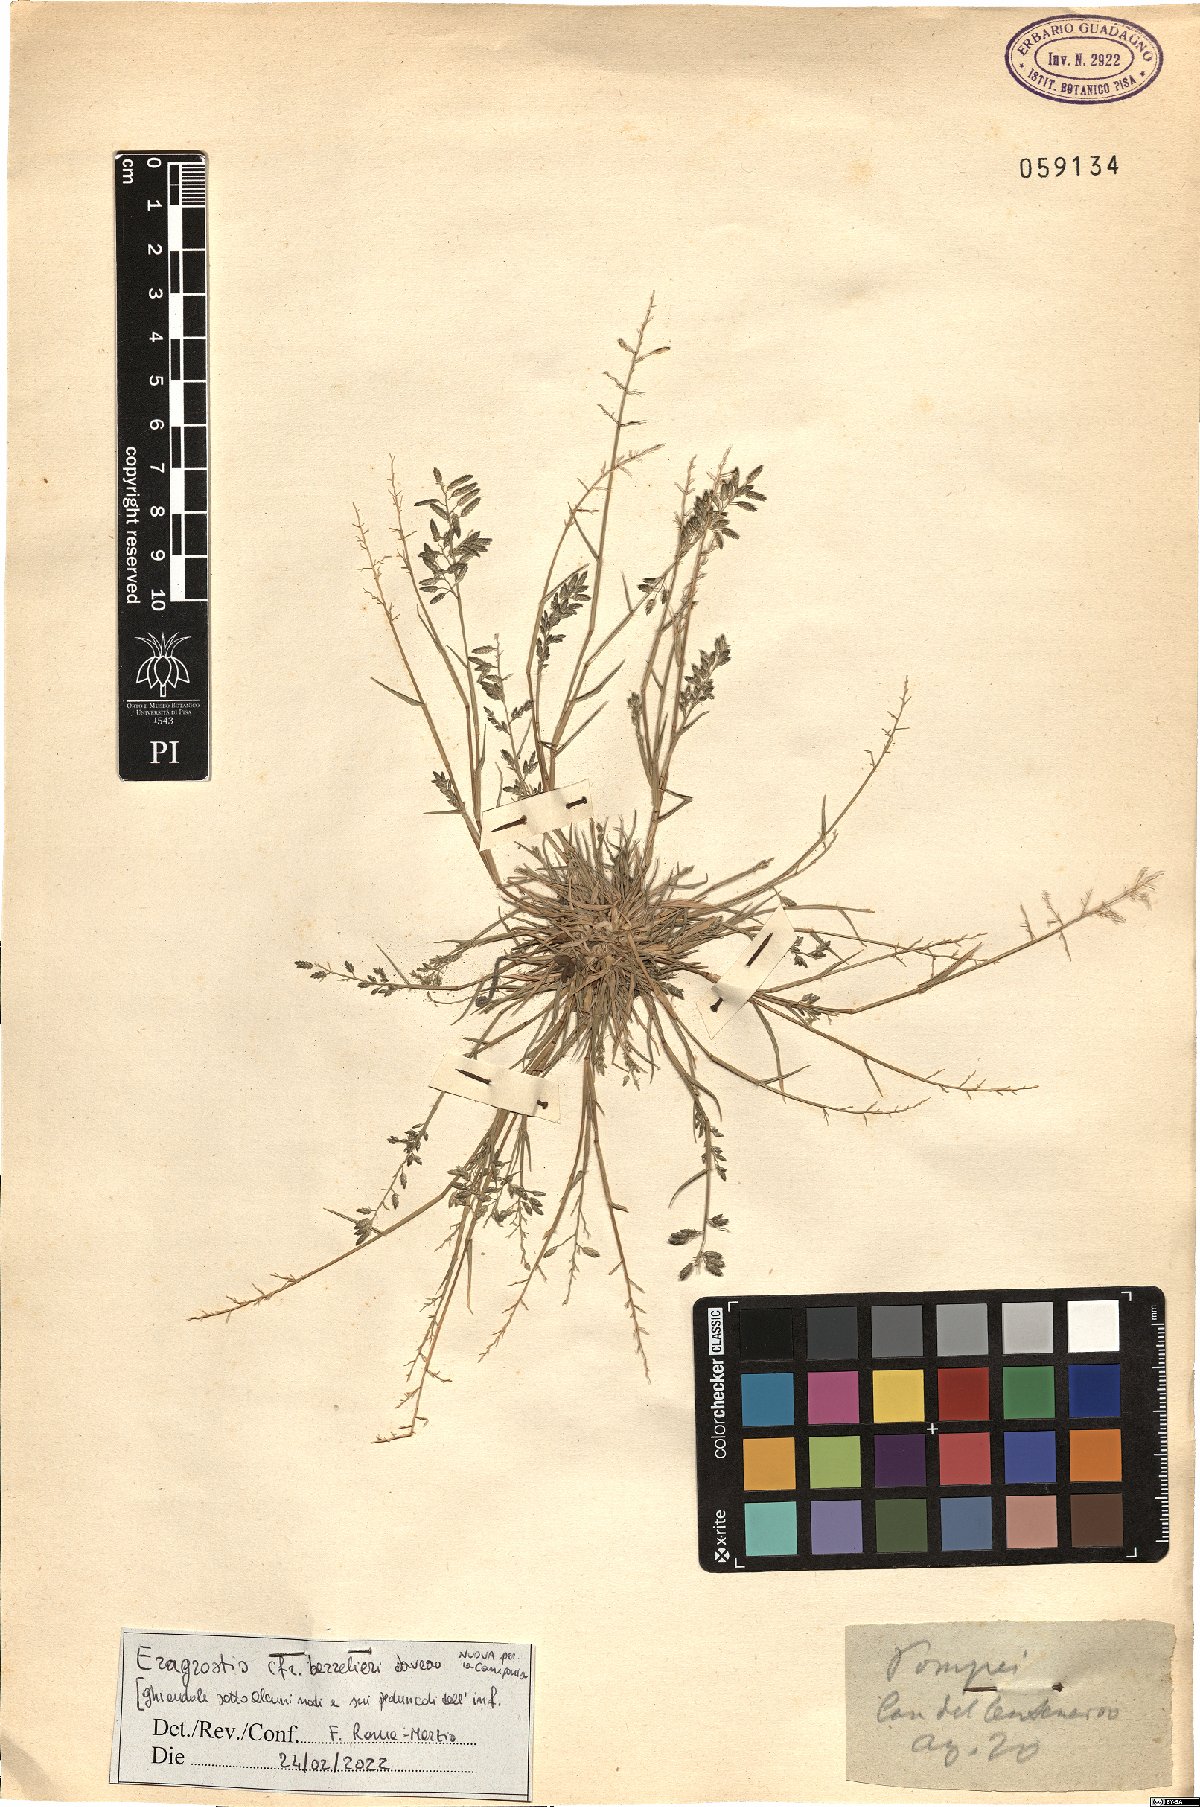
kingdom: Plantae
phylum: Tracheophyta
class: Liliopsida
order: Poales
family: Poaceae
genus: Eragrostis
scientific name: Eragrostis barrelieri
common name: Mediterranean lovegrass
